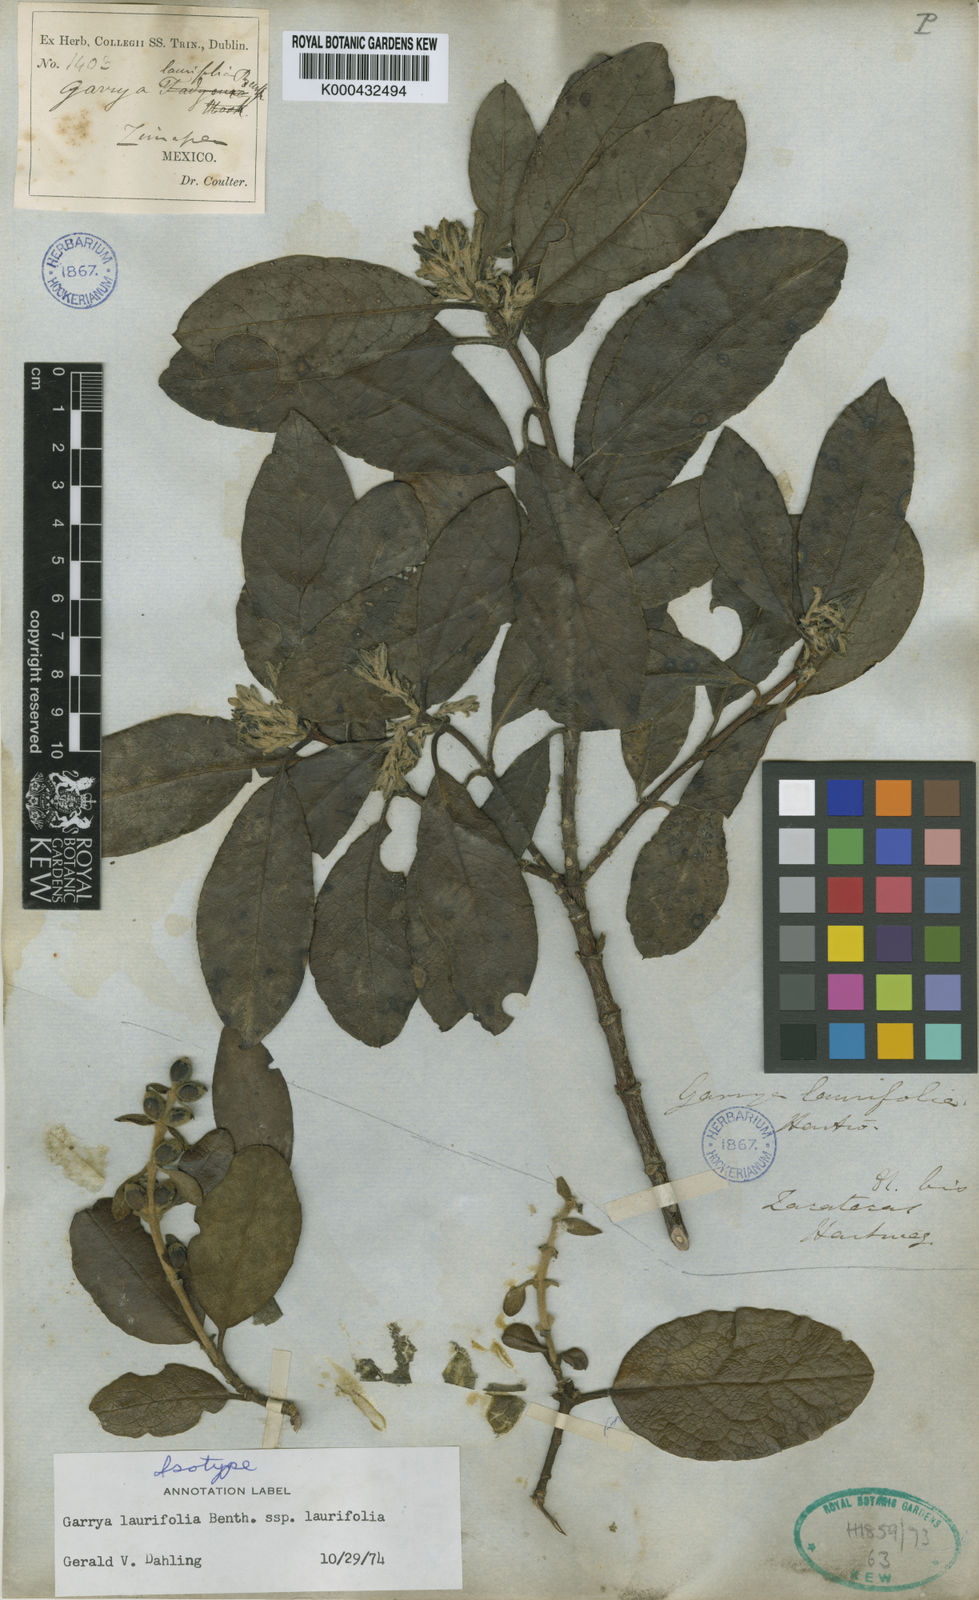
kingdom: Plantae
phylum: Tracheophyta
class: Magnoliopsida
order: Garryales
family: Garryaceae
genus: Garrya
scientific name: Garrya laurifolia
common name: Cuachichic
